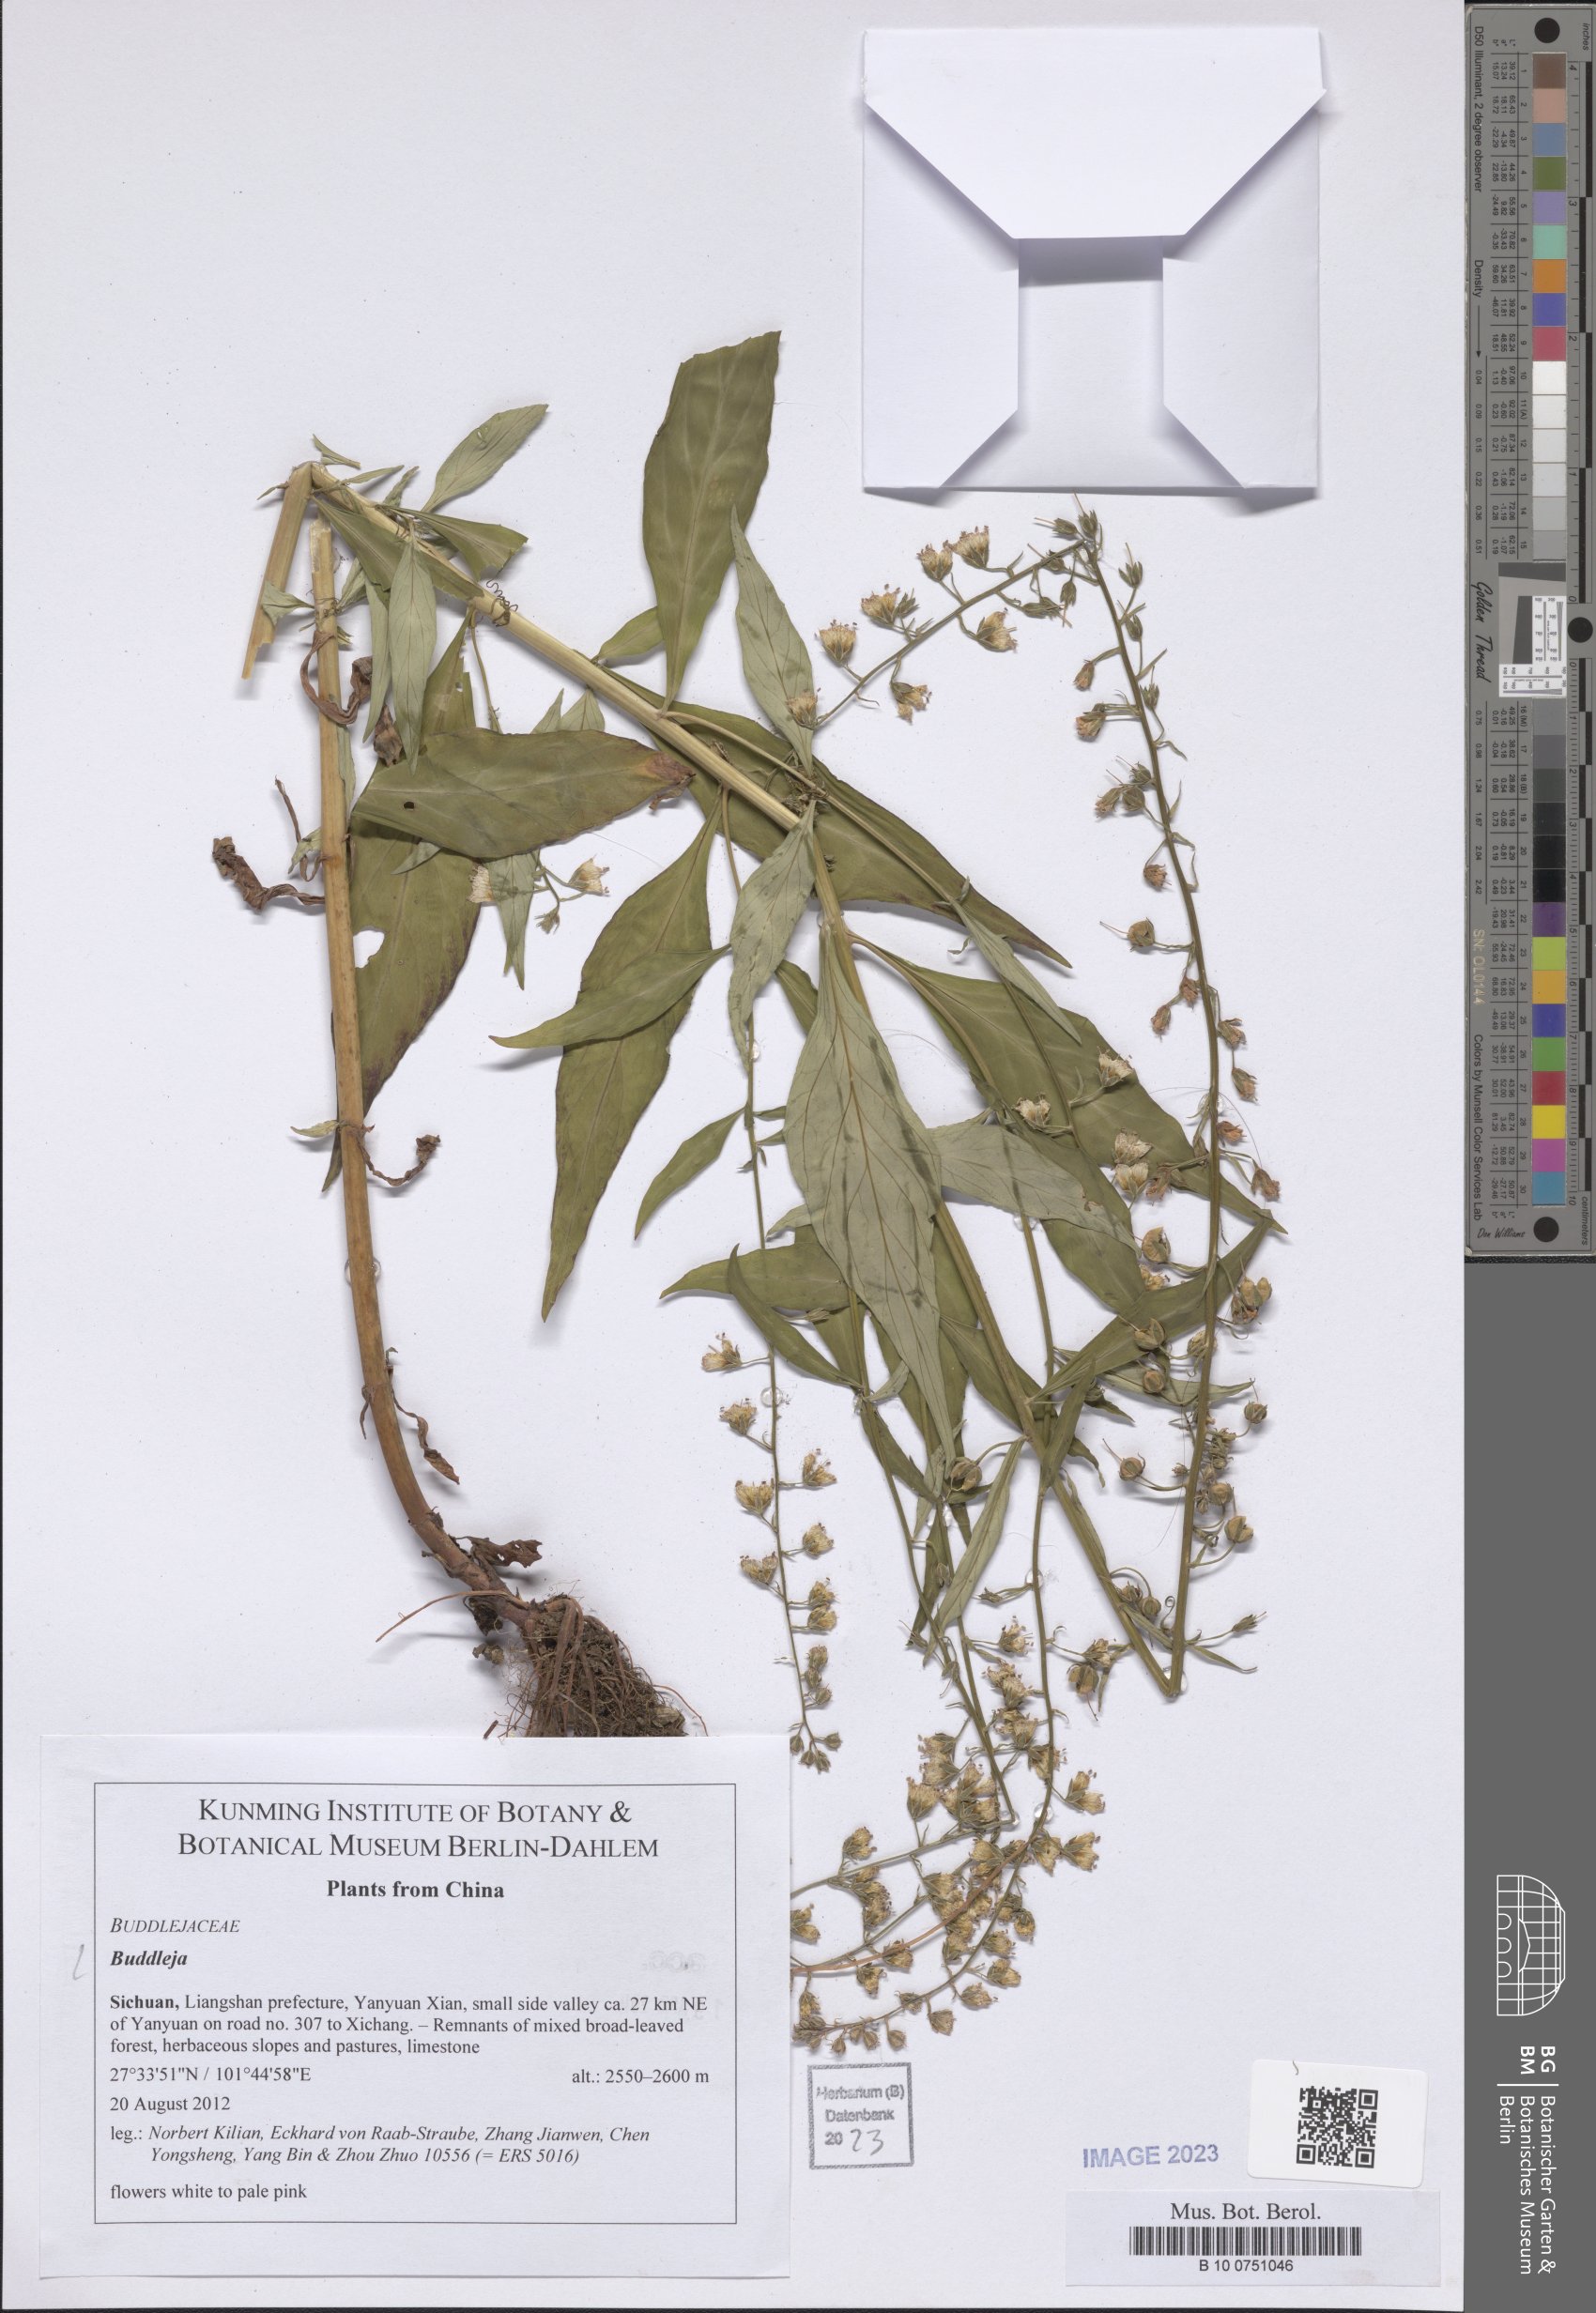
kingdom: Plantae
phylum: Tracheophyta
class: Magnoliopsida
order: Lamiales
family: Scrophulariaceae
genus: Buddleja
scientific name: Buddleja
